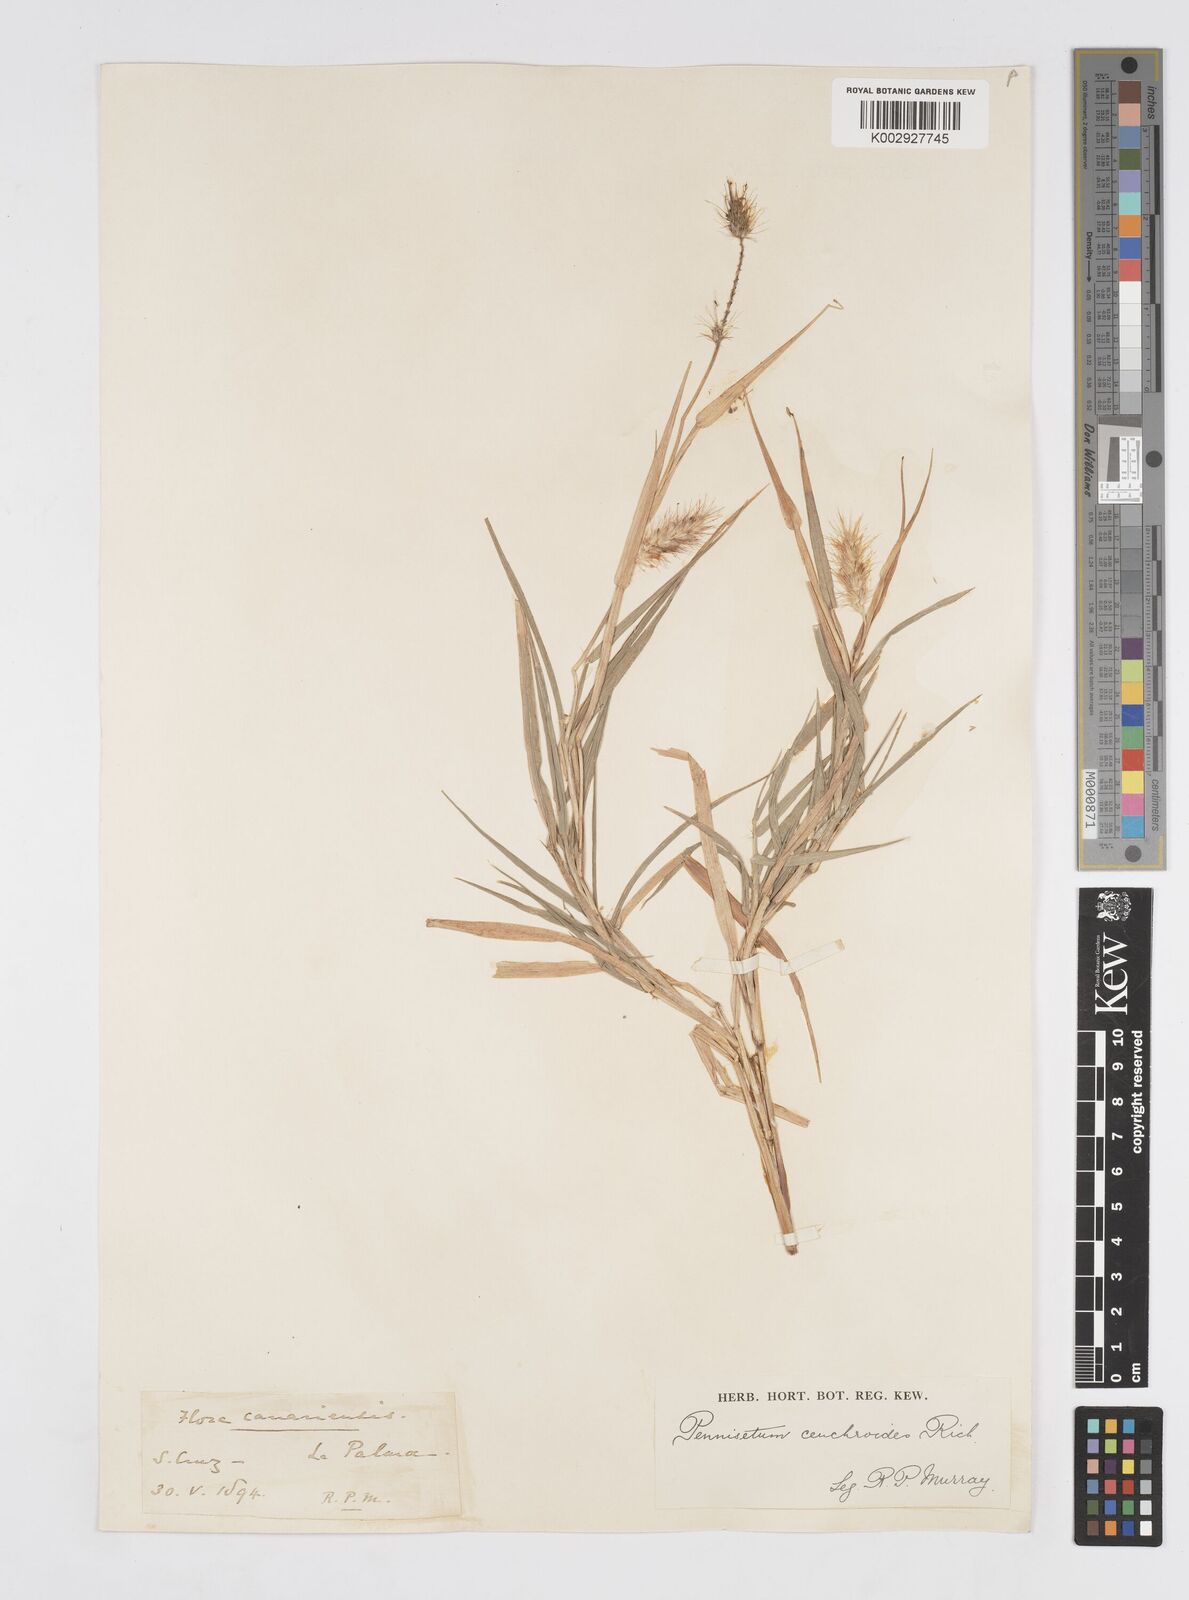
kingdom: Plantae
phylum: Tracheophyta
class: Liliopsida
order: Poales
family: Poaceae
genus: Cenchrus
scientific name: Cenchrus
